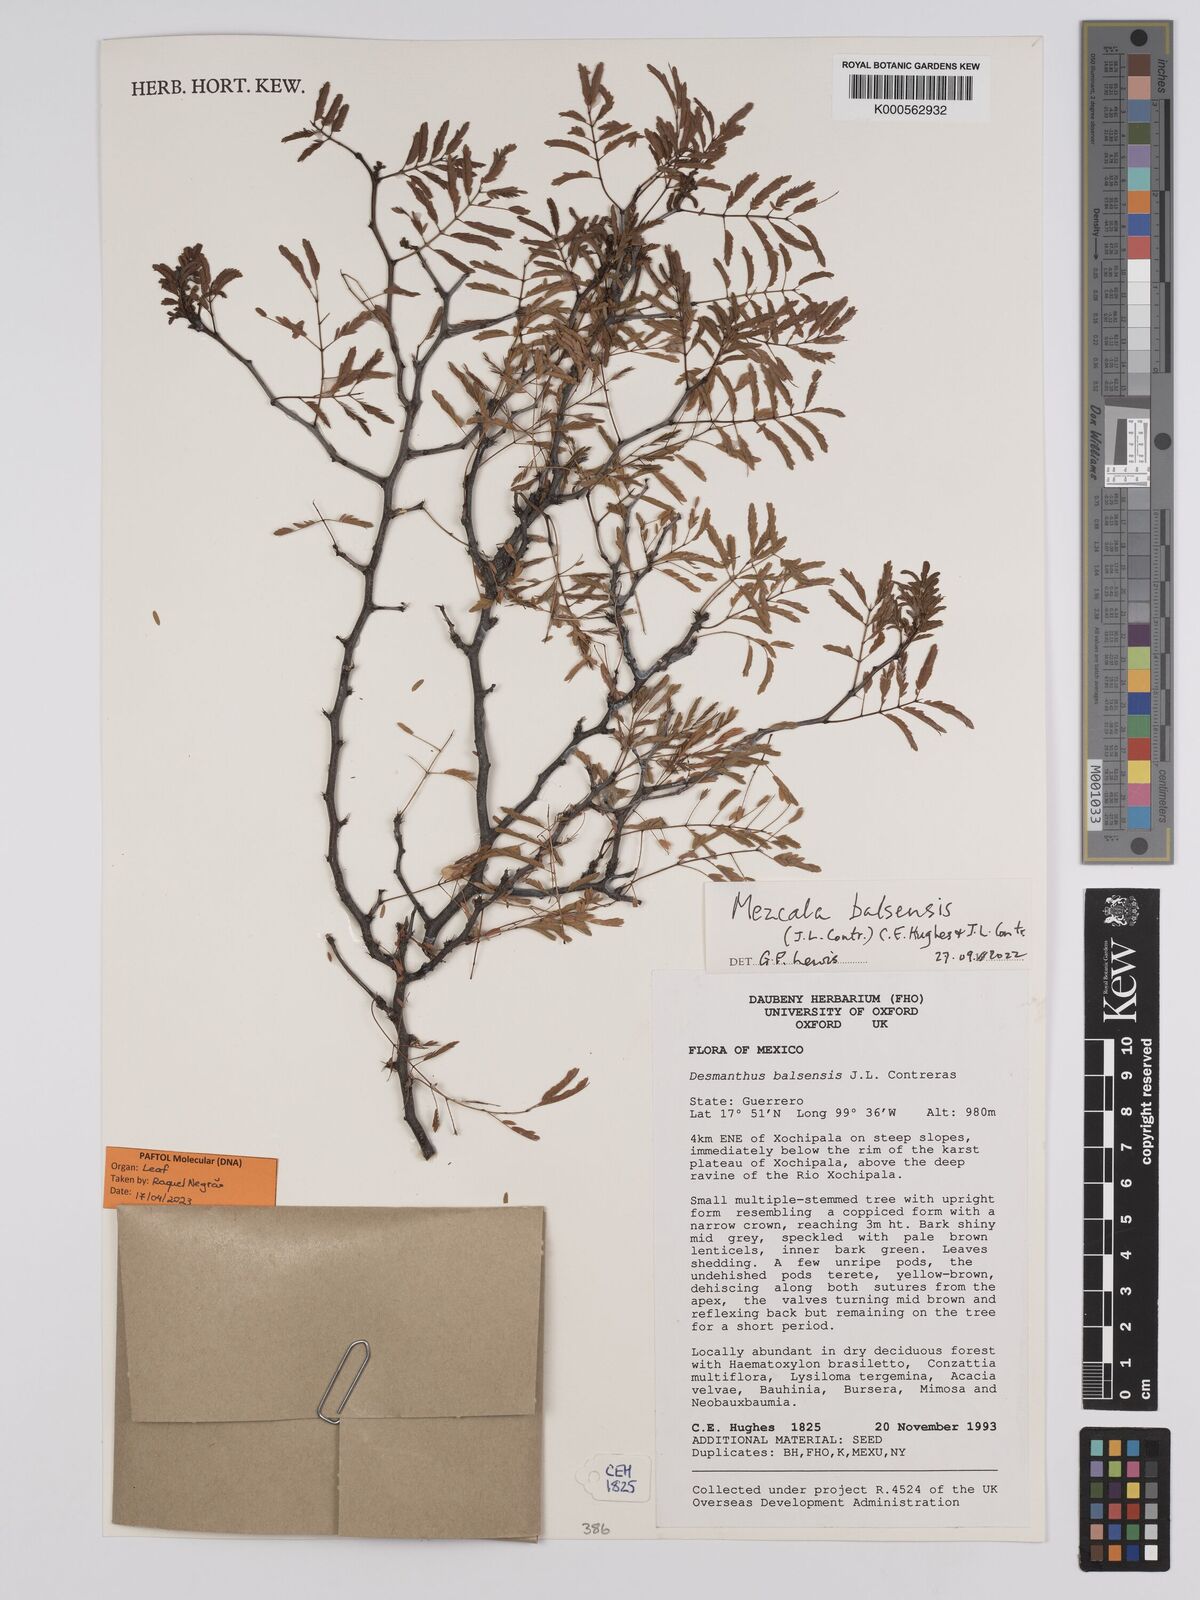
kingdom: Plantae
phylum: Tracheophyta
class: Magnoliopsida
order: Fabales
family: Fabaceae
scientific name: Fabaceae
